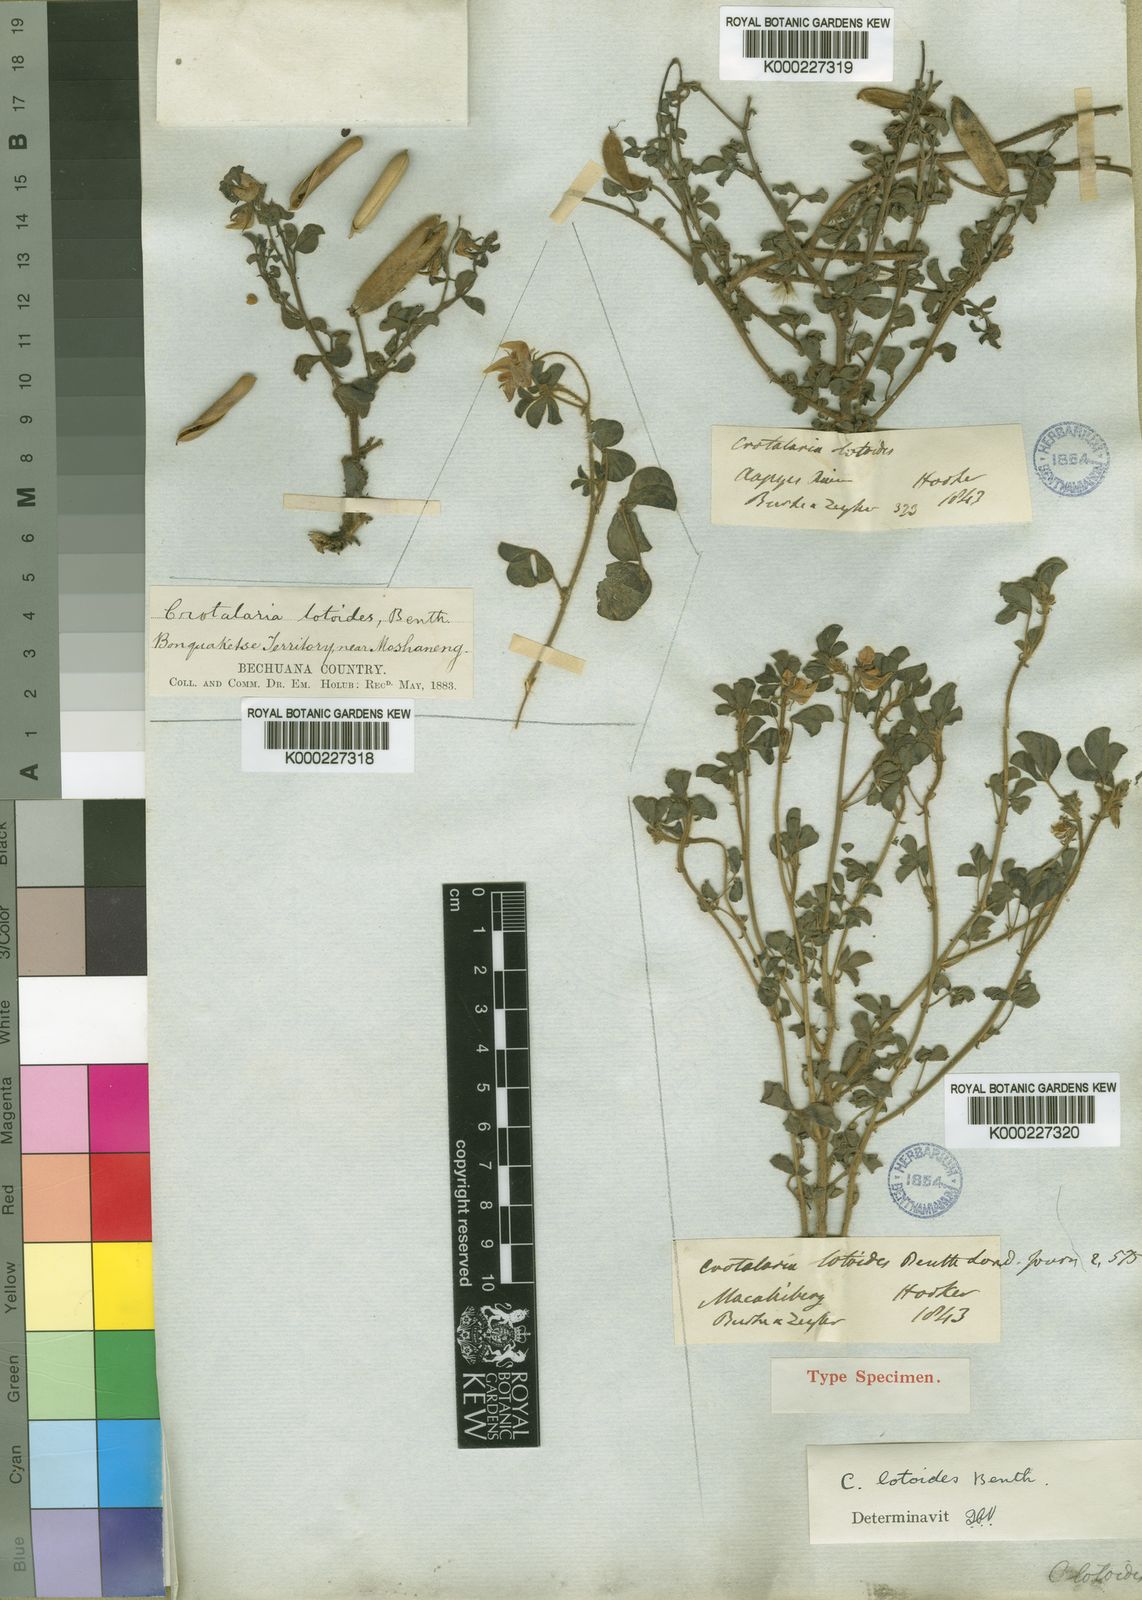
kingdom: Plantae
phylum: Tracheophyta
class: Magnoliopsida
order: Fabales
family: Fabaceae
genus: Crotalaria
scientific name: Crotalaria lotoides
